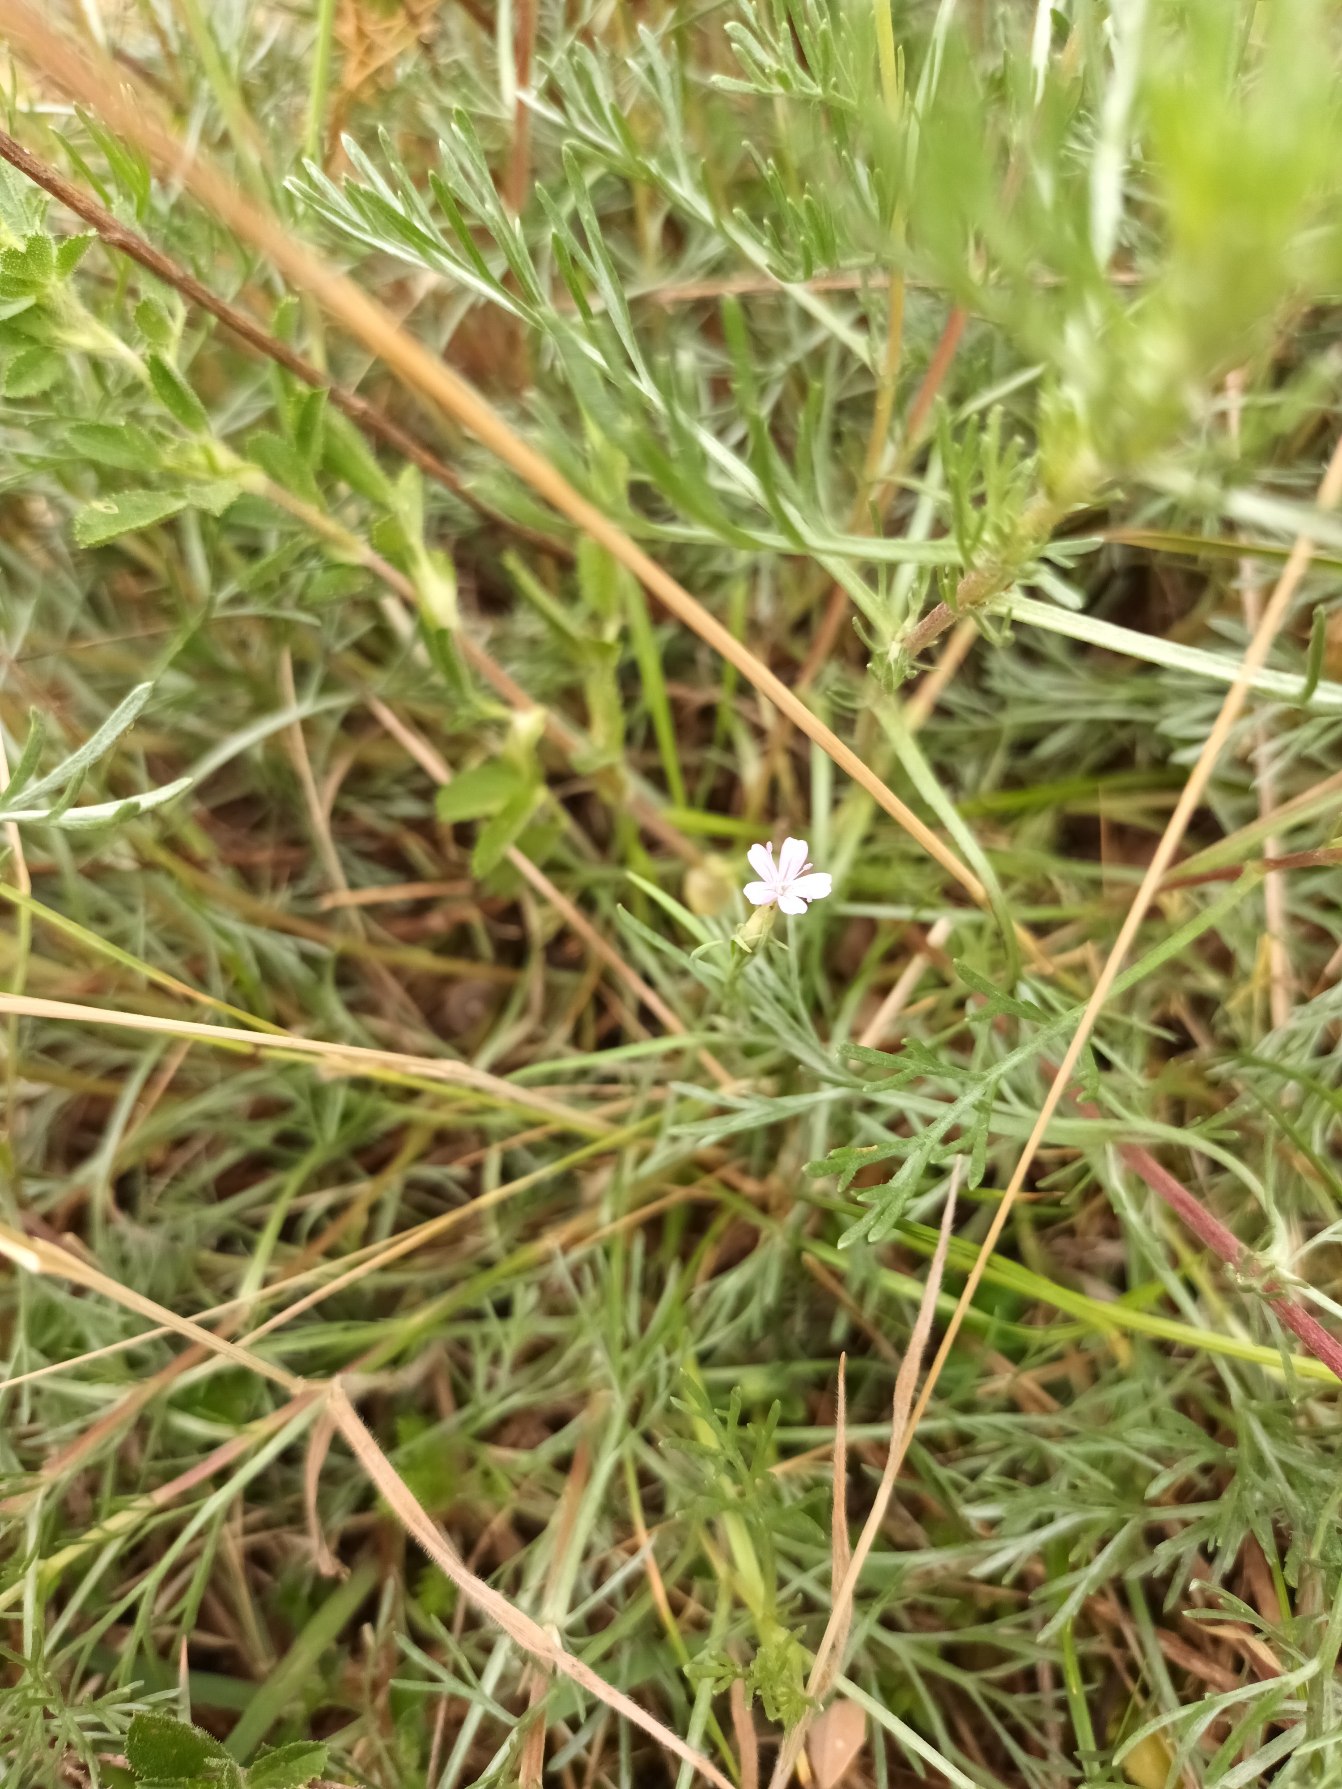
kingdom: Plantae
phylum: Tracheophyta
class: Magnoliopsida
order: Caryophyllales
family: Caryophyllaceae
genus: Petrorhagia
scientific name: Petrorhagia prolifera
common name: Knopnellike
